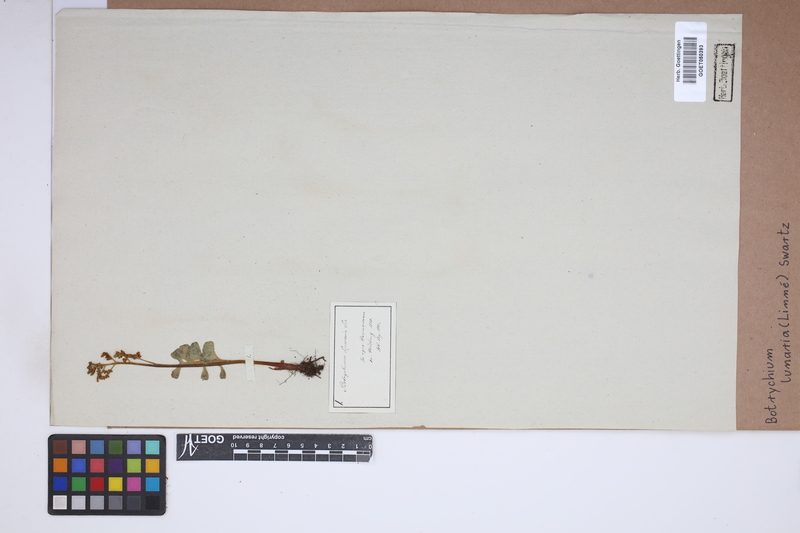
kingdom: Plantae
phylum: Tracheophyta
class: Polypodiopsida
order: Ophioglossales
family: Ophioglossaceae
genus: Botrychium
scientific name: Botrychium lunaria
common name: Moonwort
